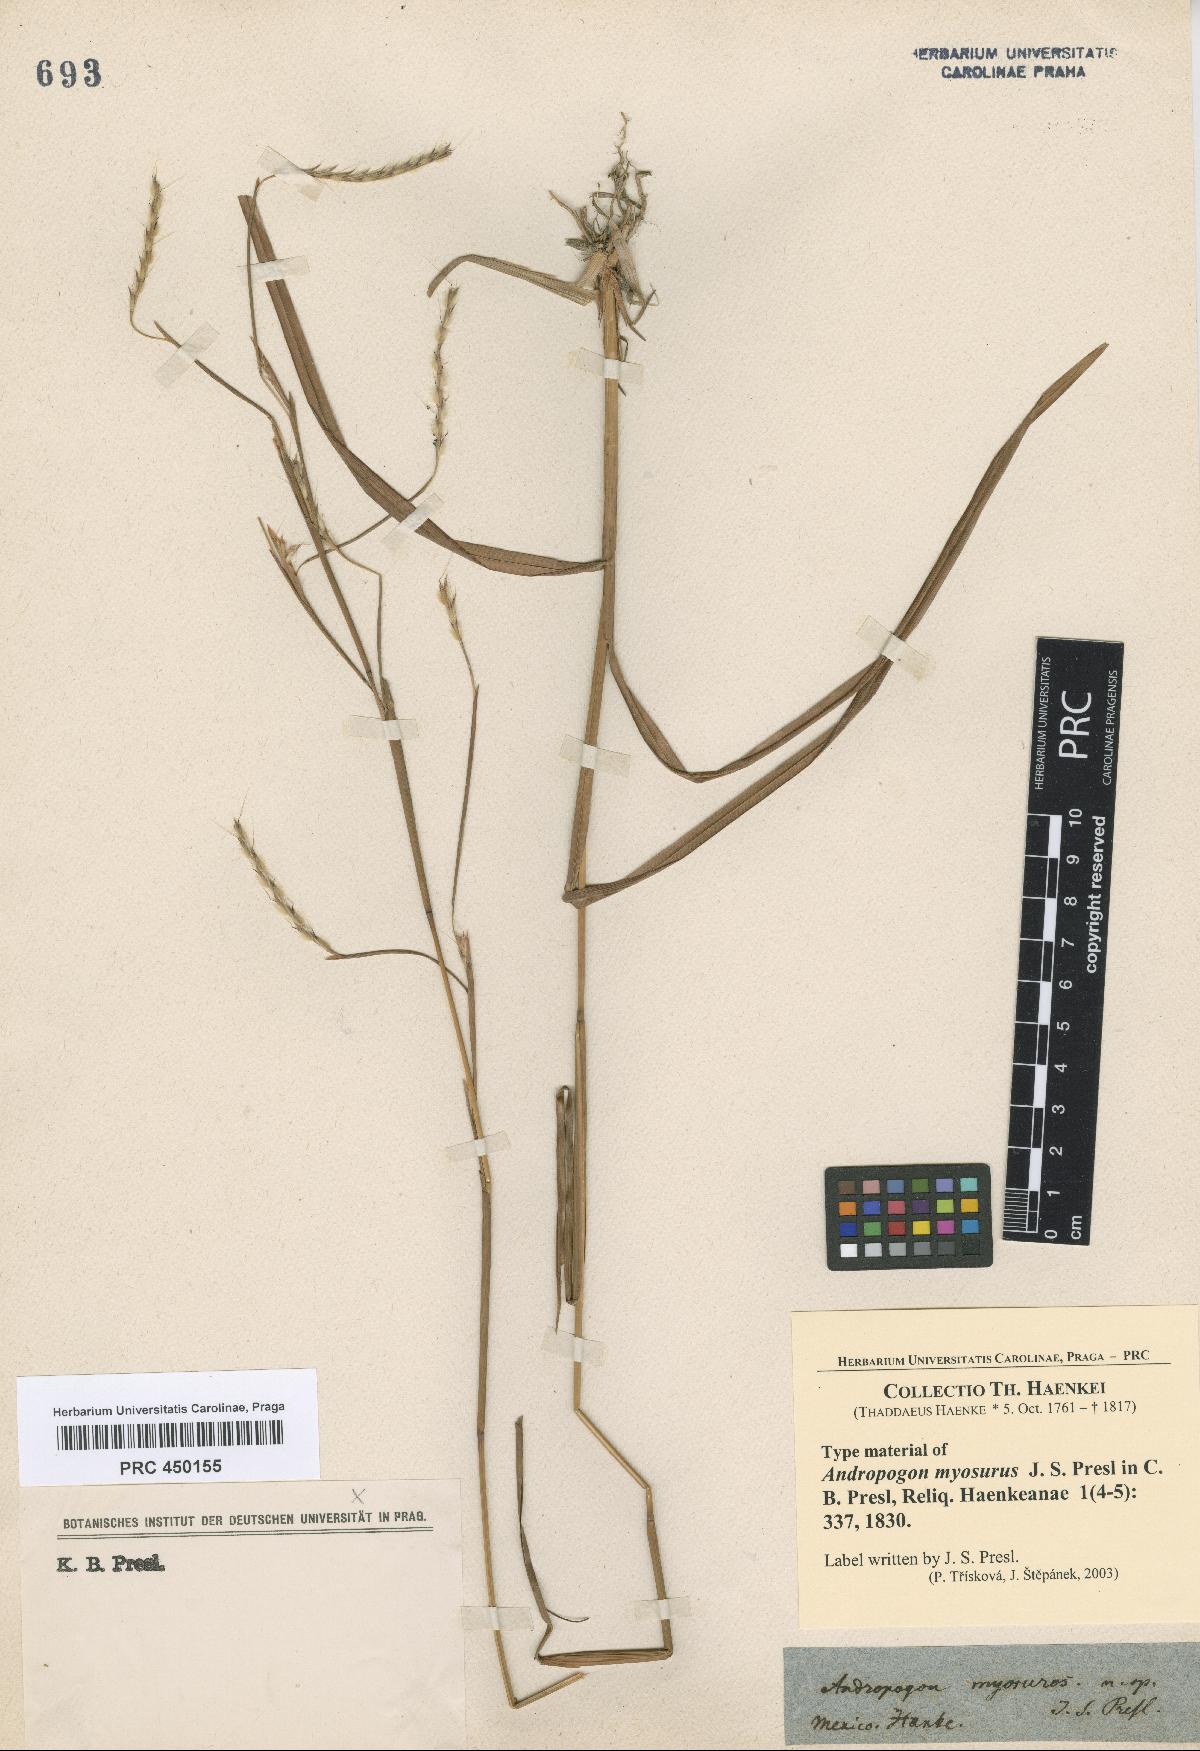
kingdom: Plantae
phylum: Tracheophyta
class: Liliopsida
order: Poales
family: Poaceae
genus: Schizachyrium
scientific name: Schizachyrium sanguineum
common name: Crimson bluestem
